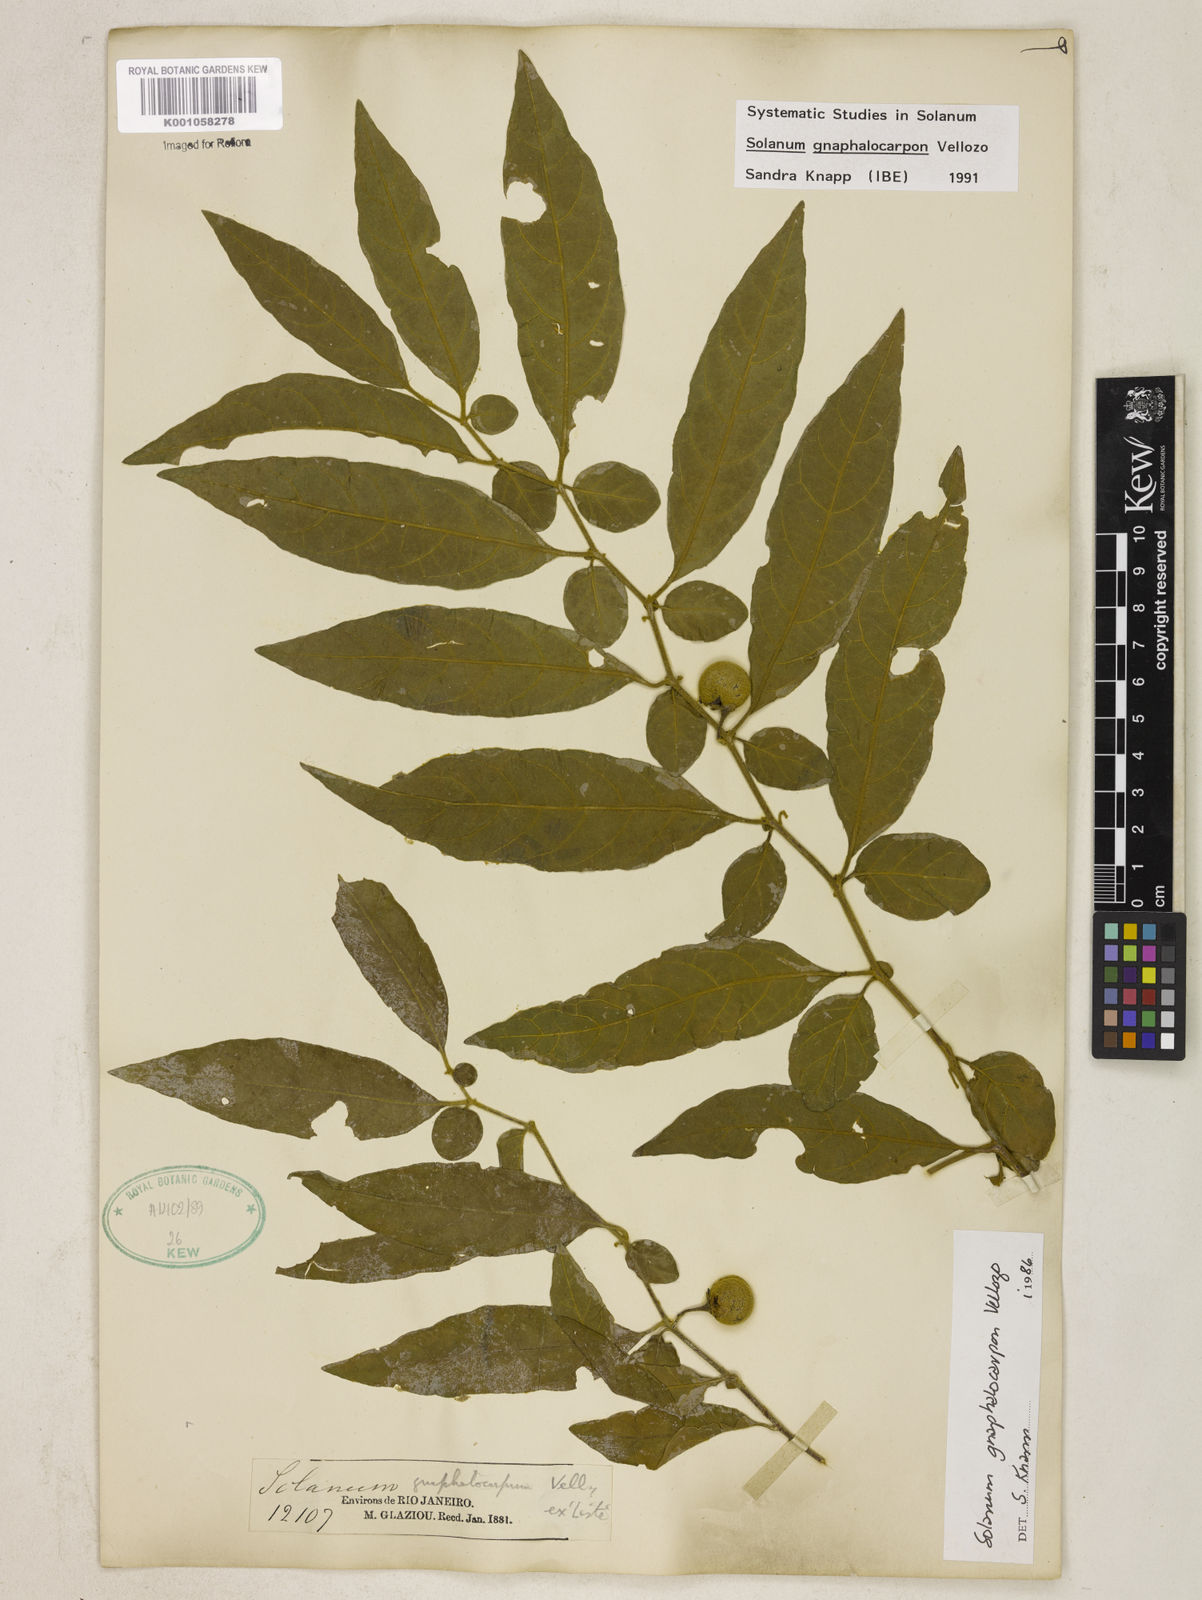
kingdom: Plantae
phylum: Tracheophyta
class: Magnoliopsida
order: Solanales
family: Solanaceae
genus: Solanum
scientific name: Solanum gnaphalocarpum
